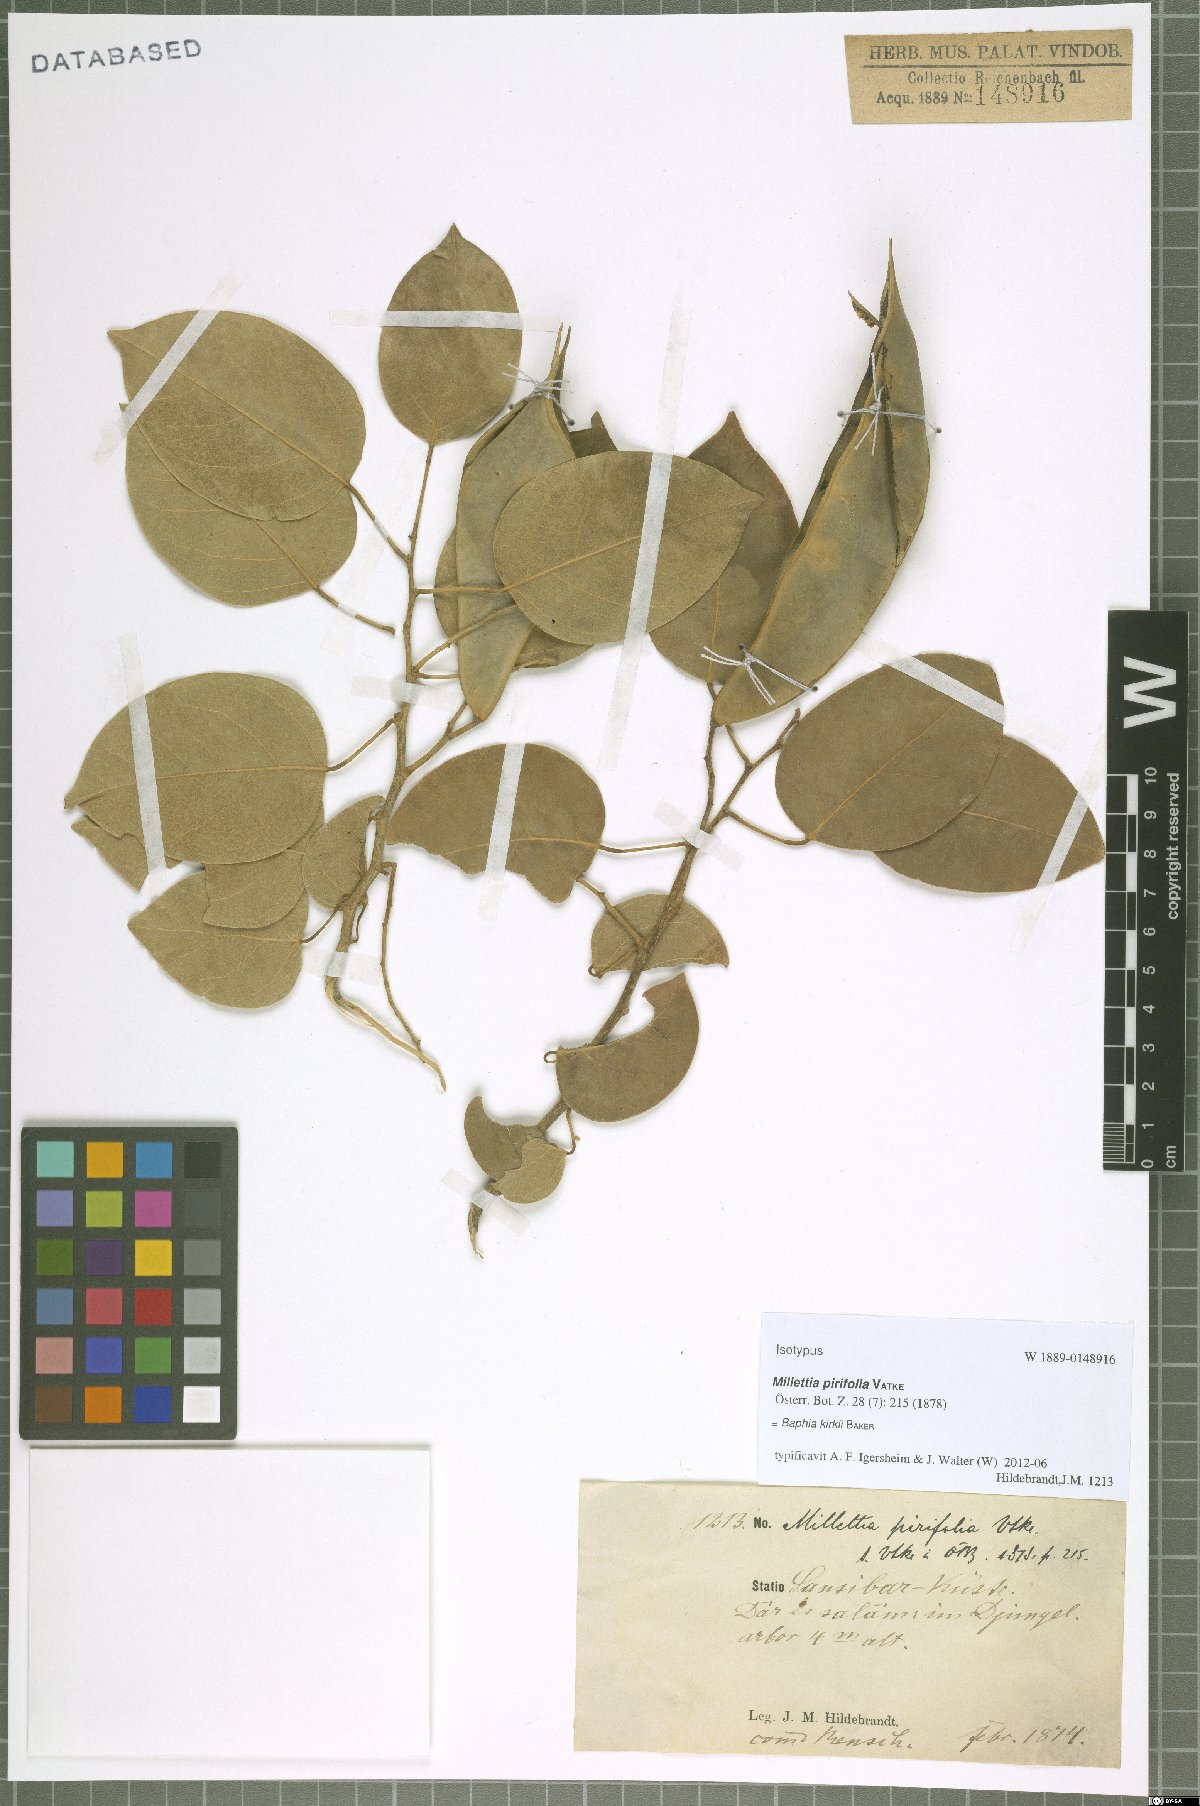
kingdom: Plantae
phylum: Tracheophyta
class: Magnoliopsida
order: Fabales
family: Fabaceae
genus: Baphia
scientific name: Baphia kirkii
